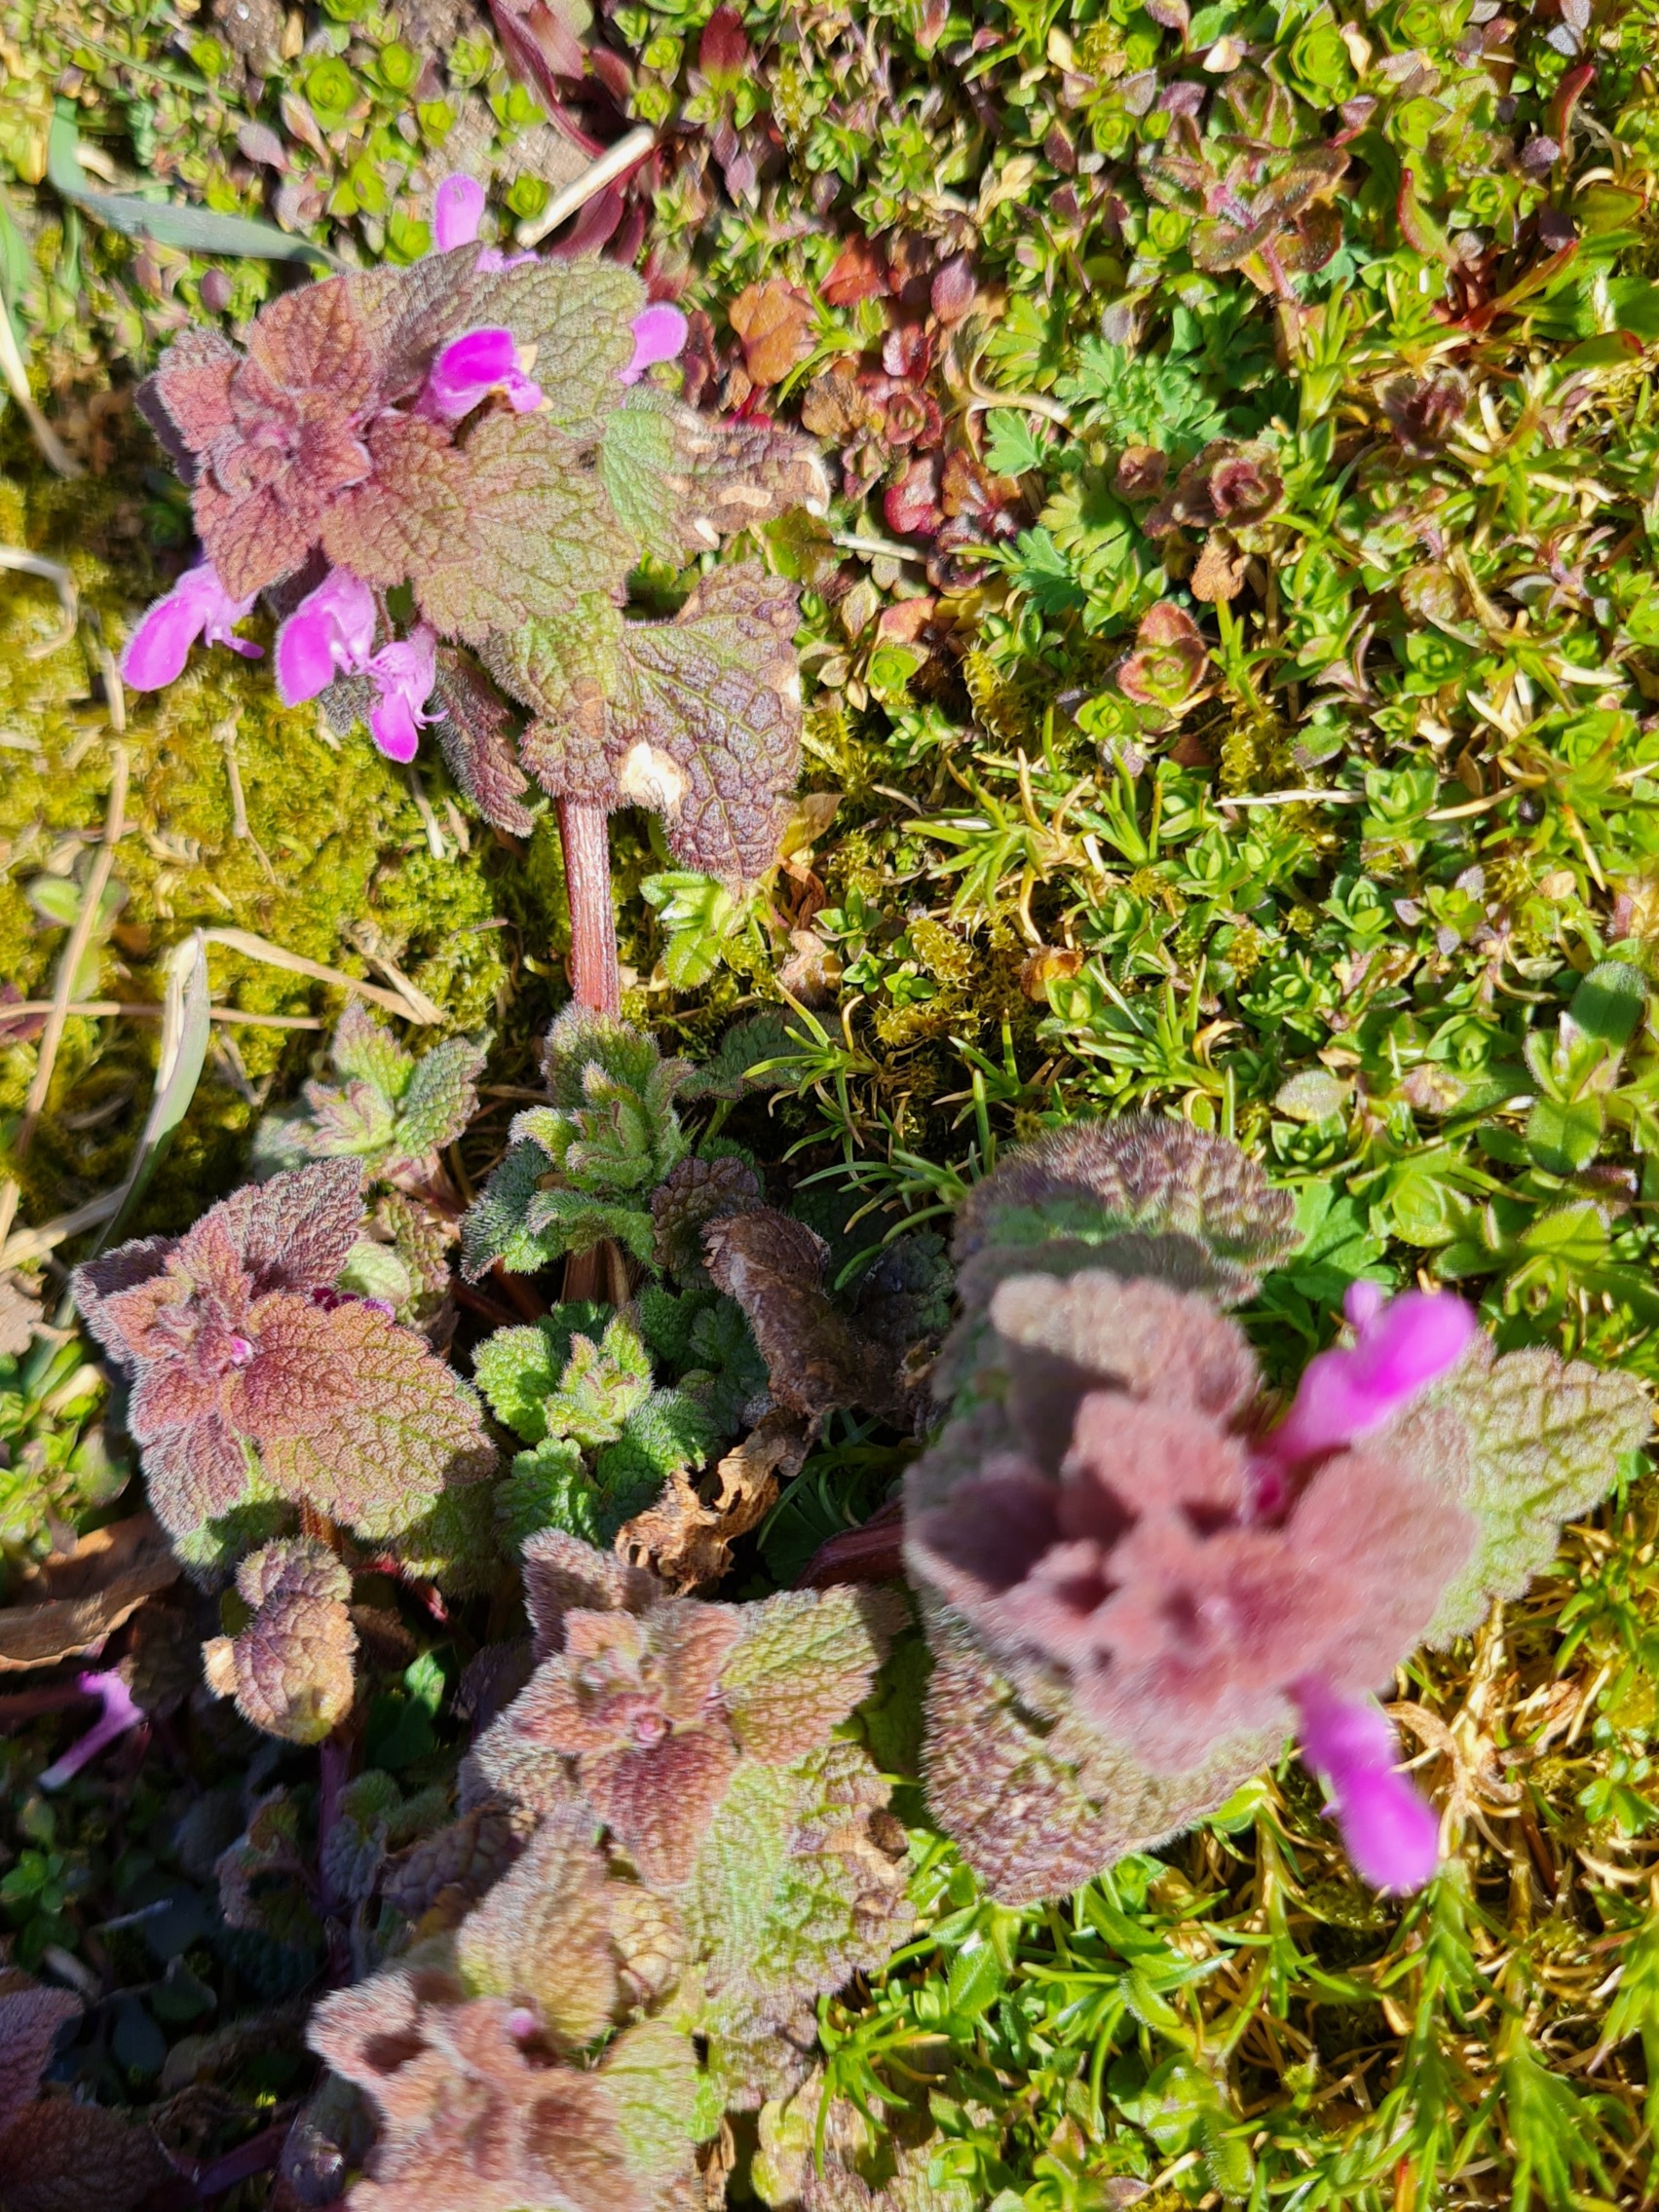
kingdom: Plantae
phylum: Tracheophyta
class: Magnoliopsida
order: Lamiales
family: Lamiaceae
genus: Lamium
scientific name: Lamium purpureum
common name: Rød tvetand
